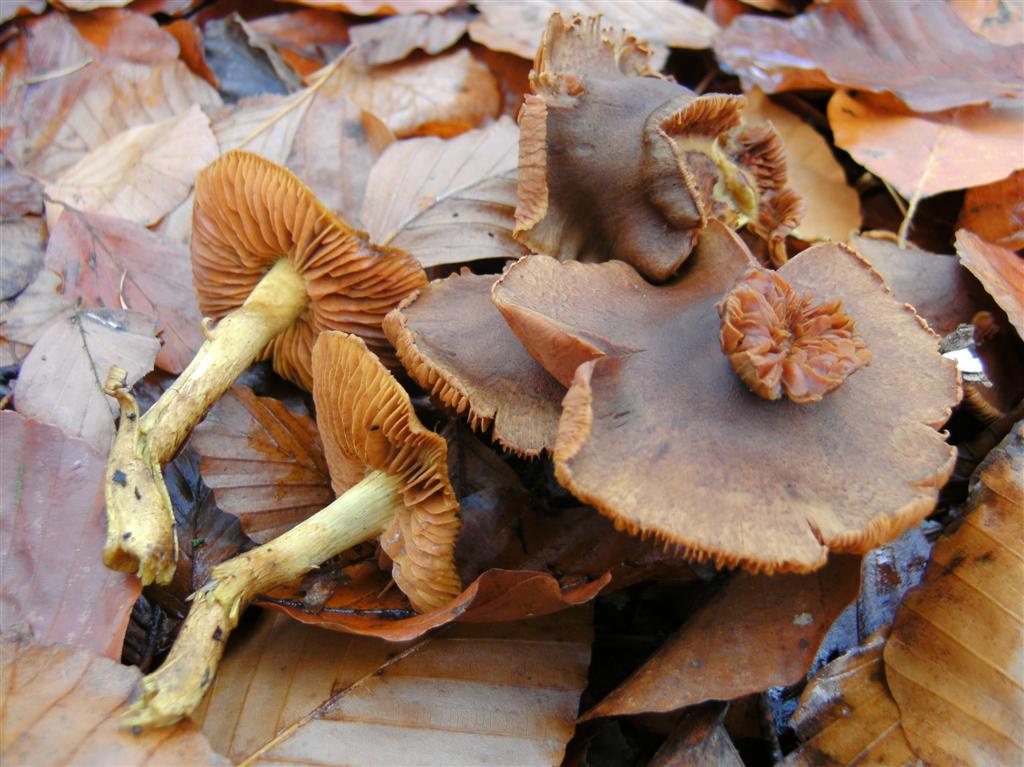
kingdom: Fungi
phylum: Basidiomycota
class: Agaricomycetes
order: Agaricales
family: Cortinariaceae
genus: Cortinarius
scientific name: Cortinarius cinnamomeus
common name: kanel-slørhat
